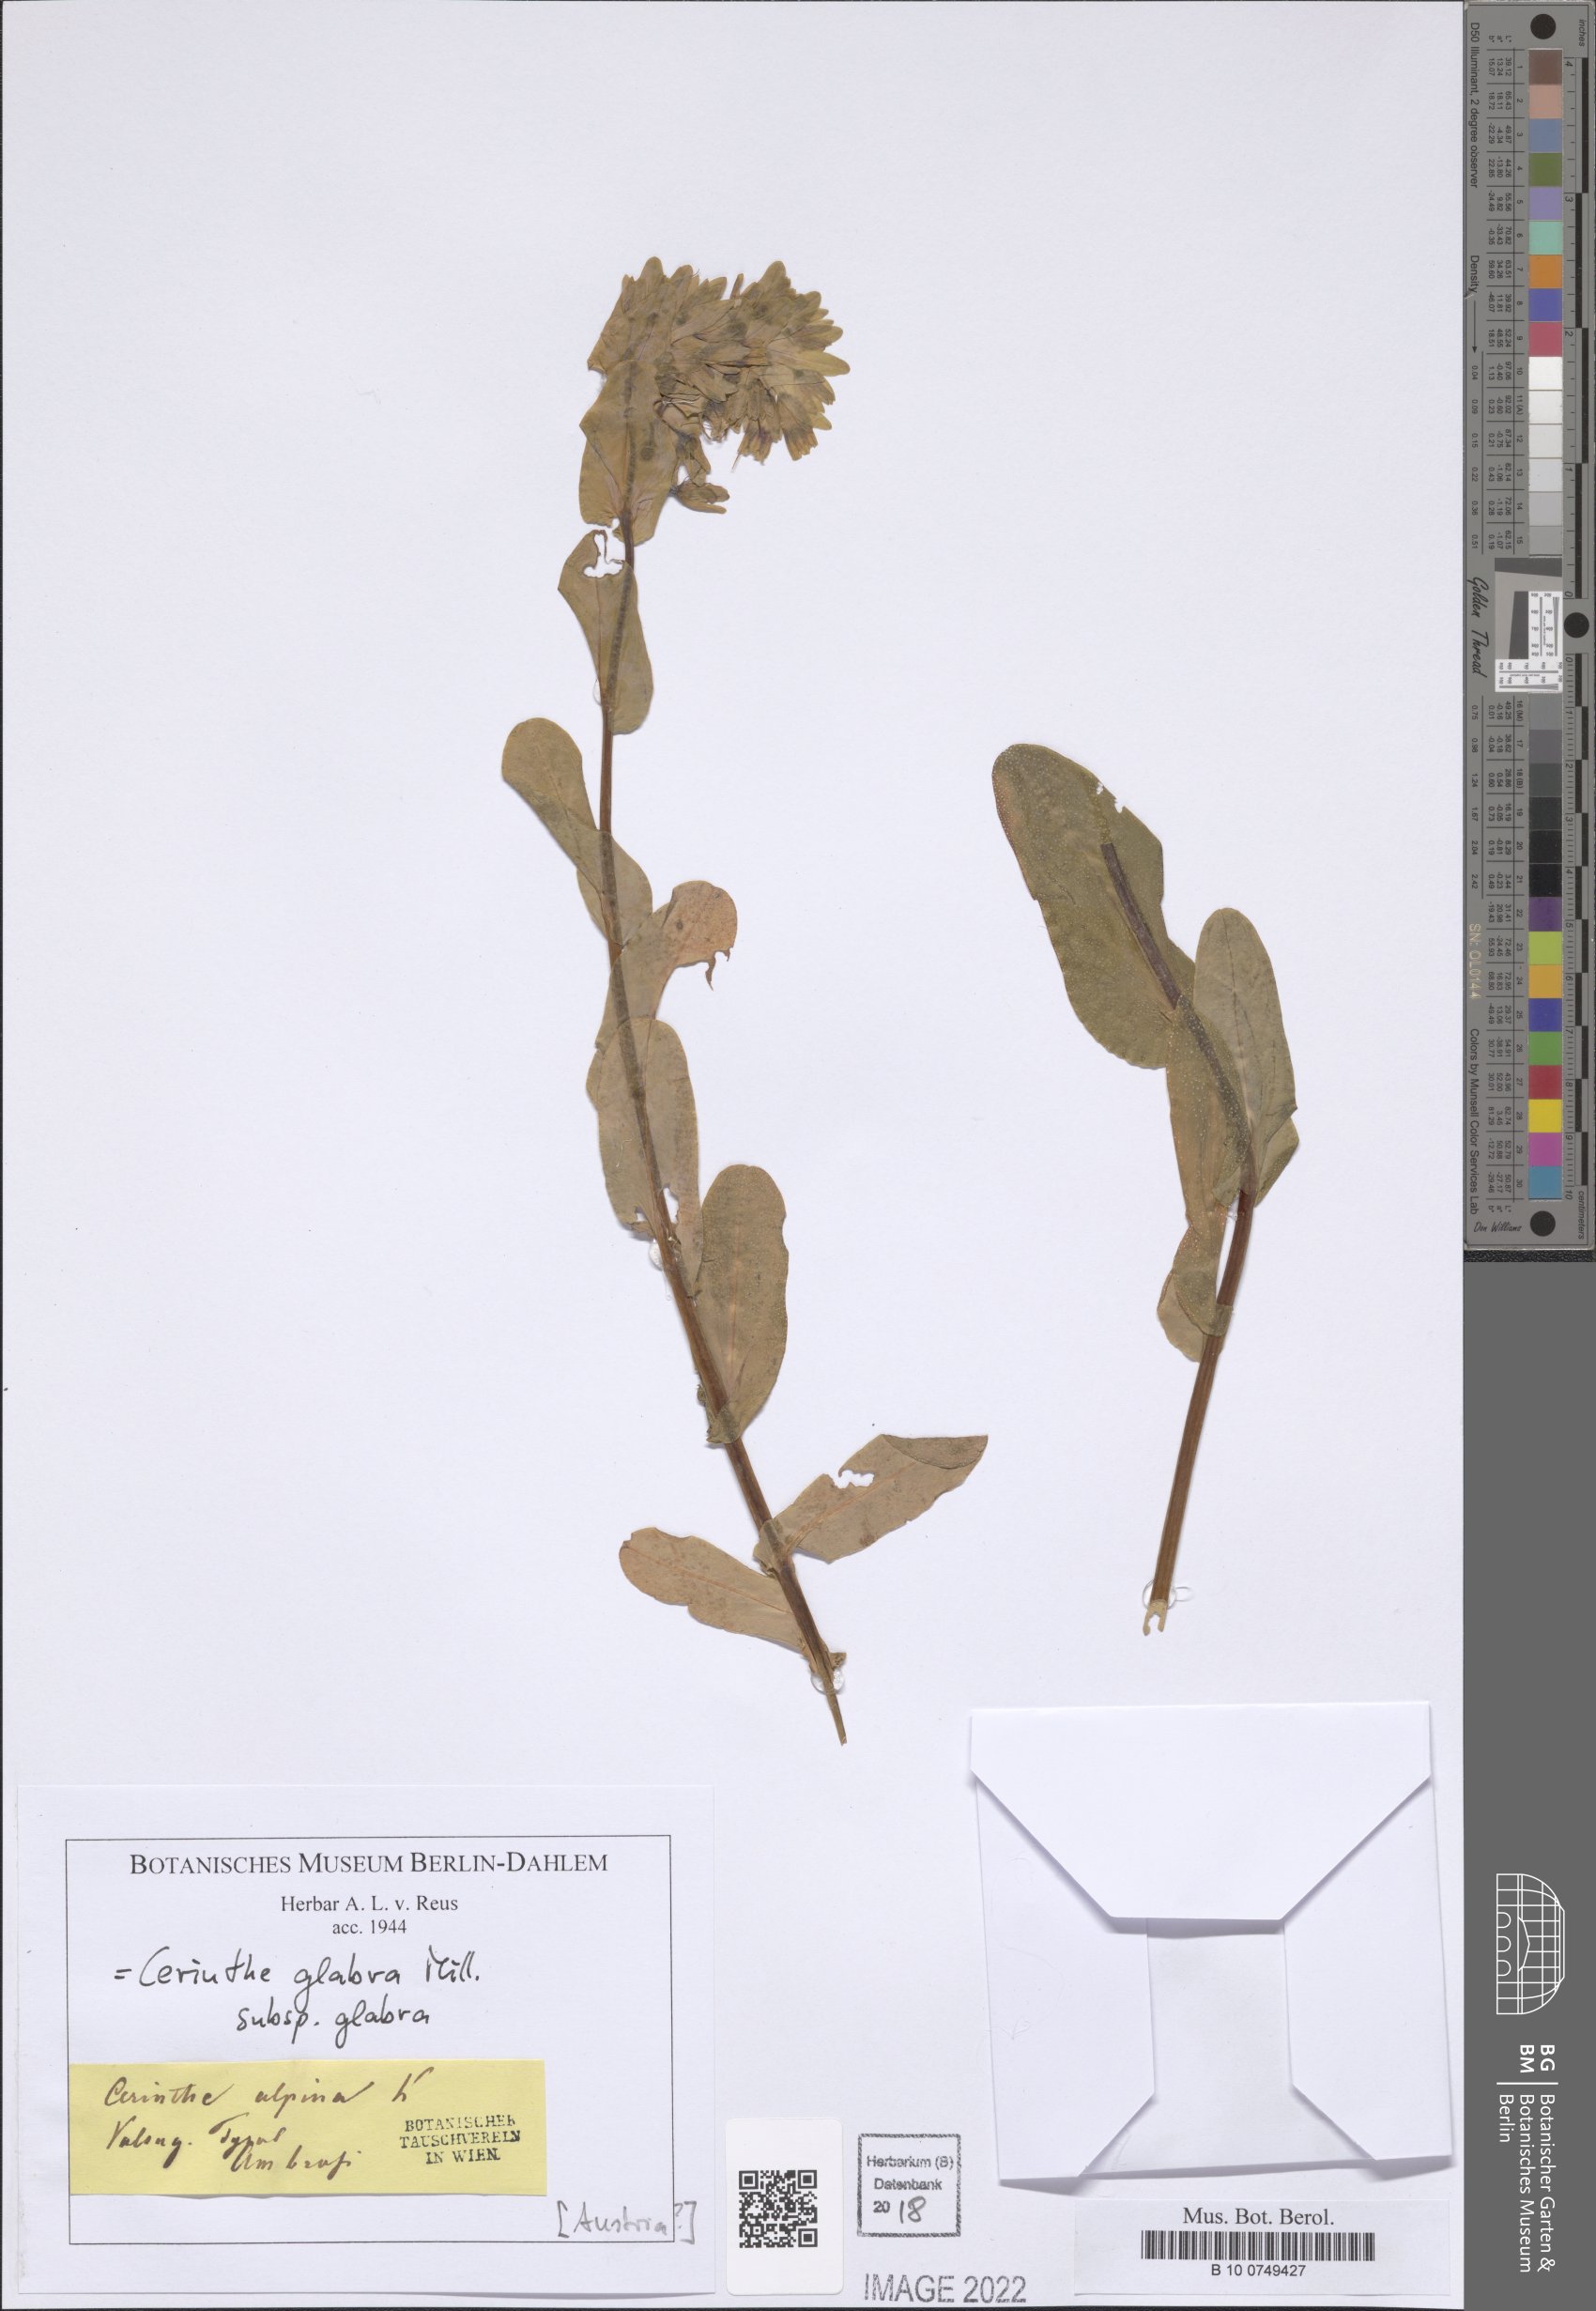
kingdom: Plantae
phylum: Tracheophyta
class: Magnoliopsida
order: Boraginales
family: Boraginaceae
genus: Cerinthe
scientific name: Cerinthe glabra
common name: Smooth honeywort
